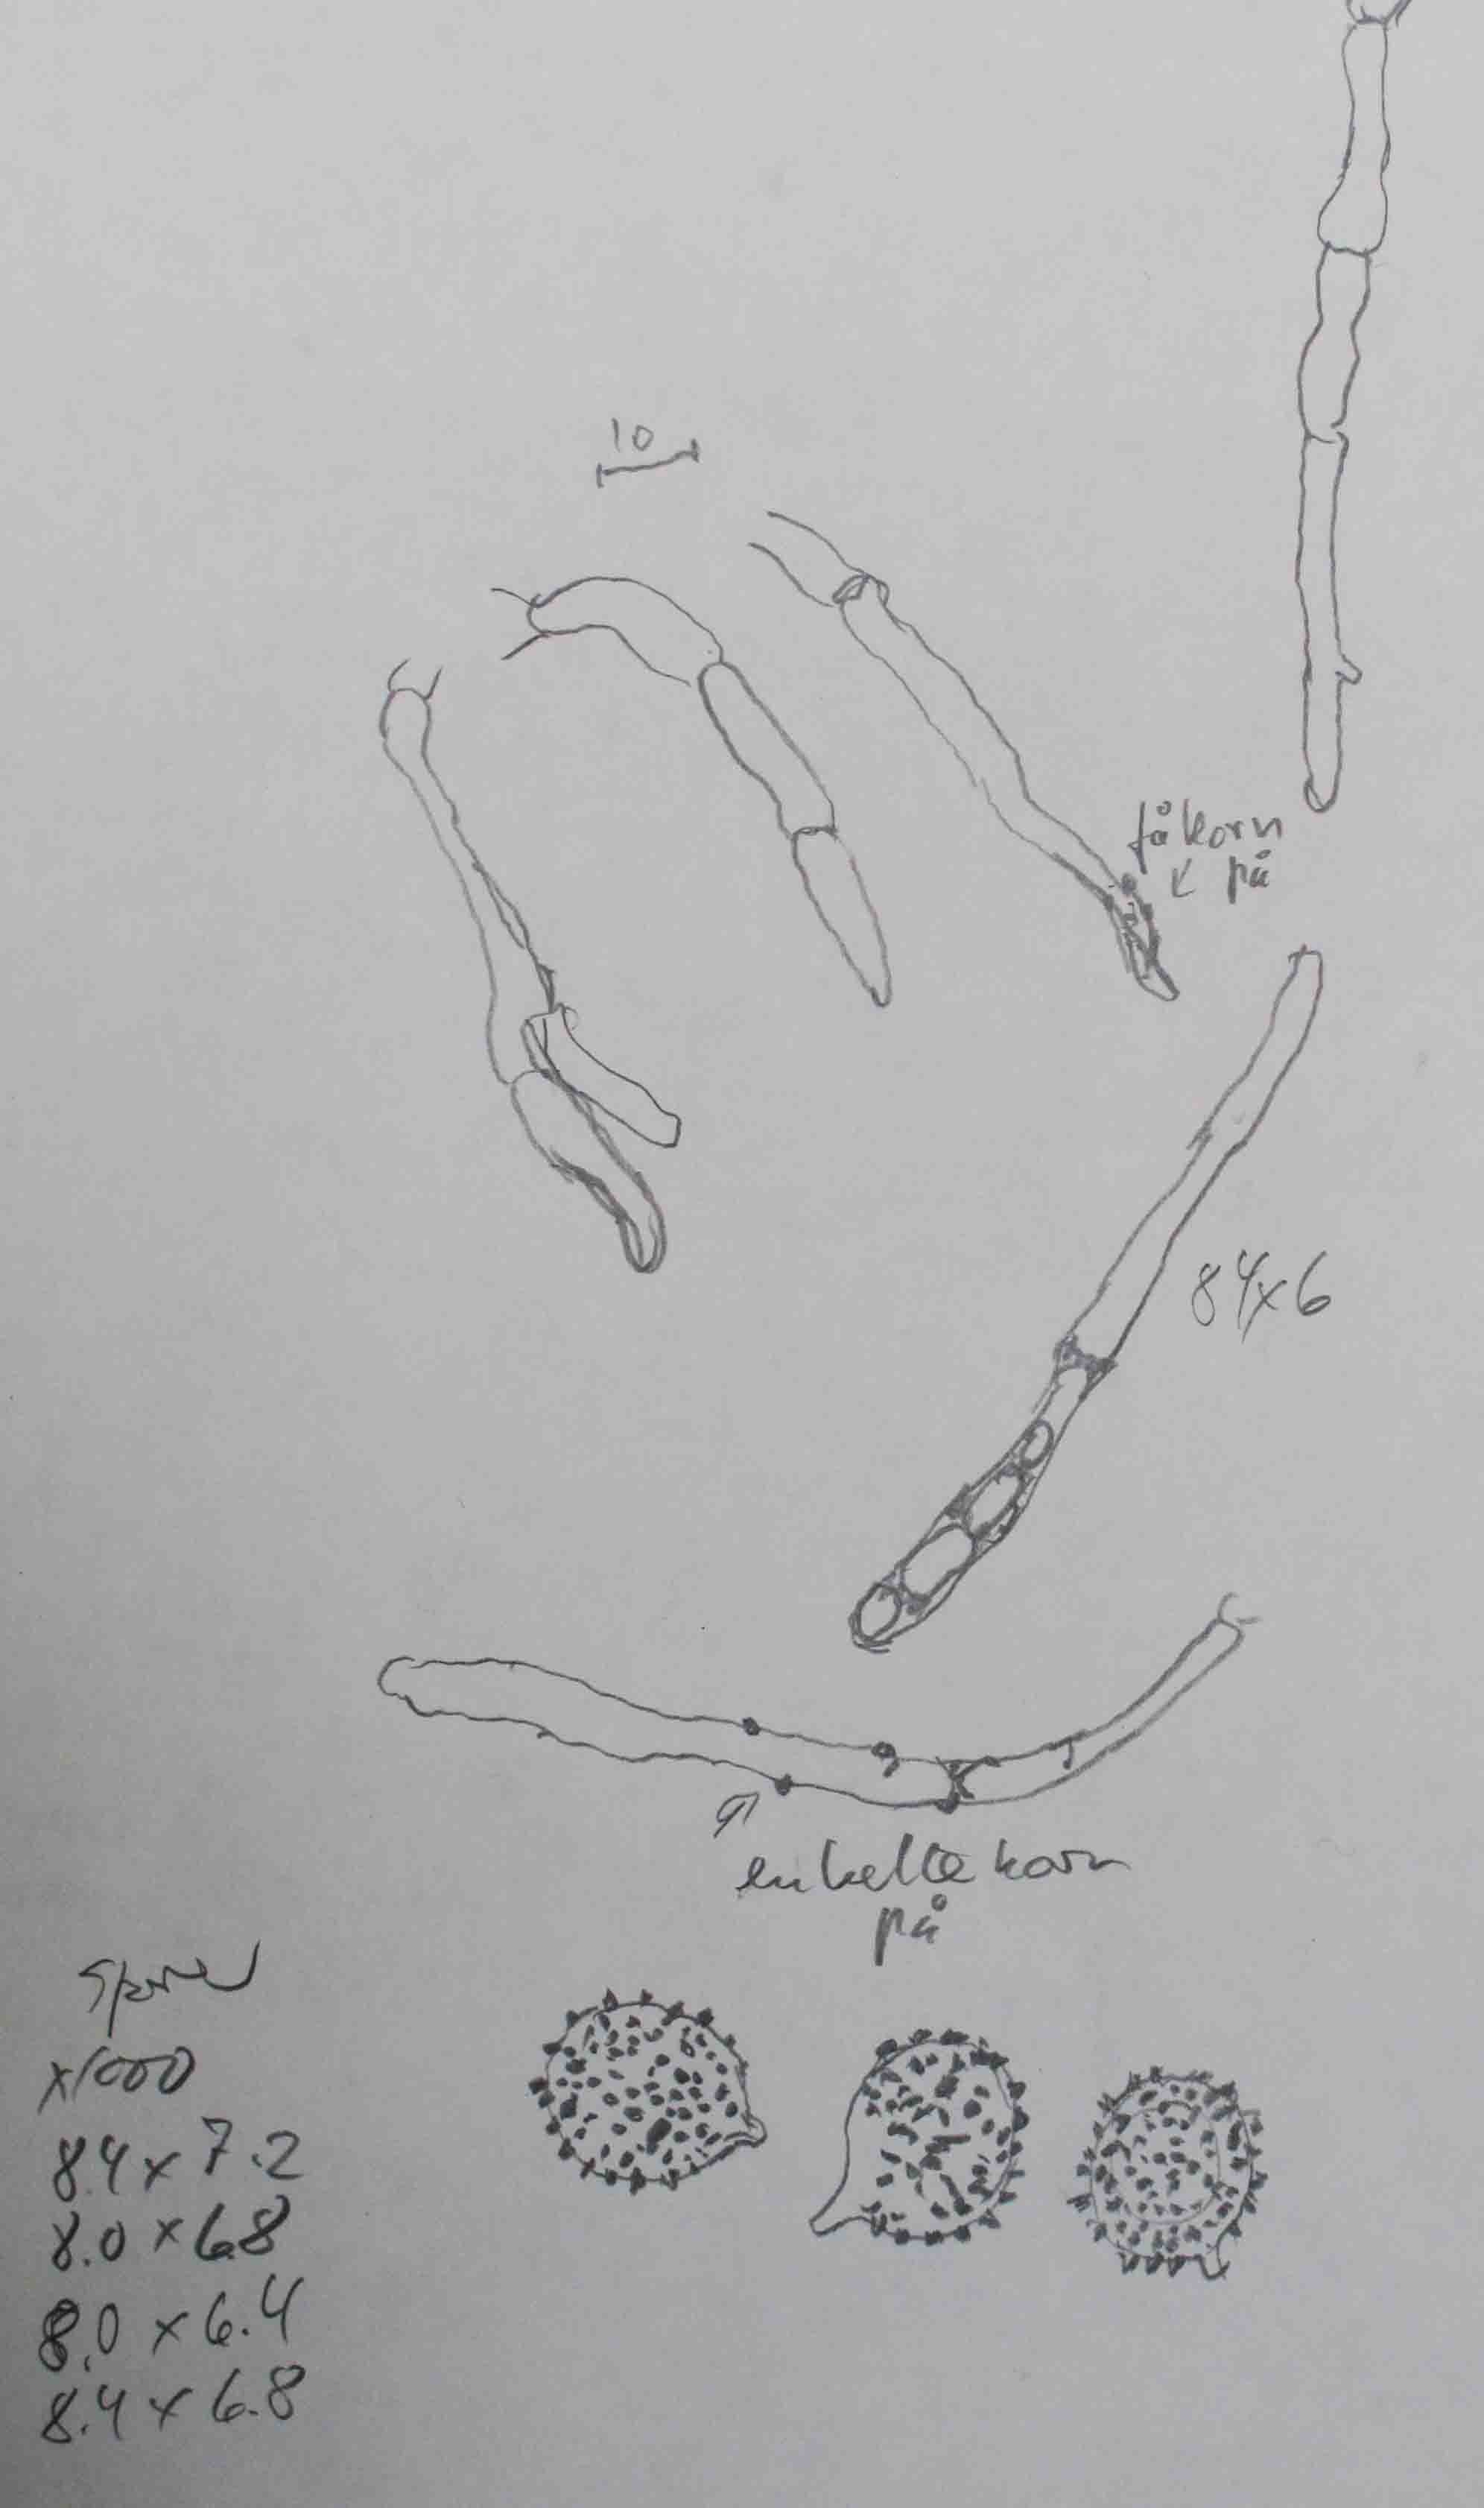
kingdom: Fungi
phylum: Basidiomycota
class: Agaricomycetes
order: Russulales
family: Russulaceae
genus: Russula
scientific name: Russula curtipes
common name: kortstokket skørhat
